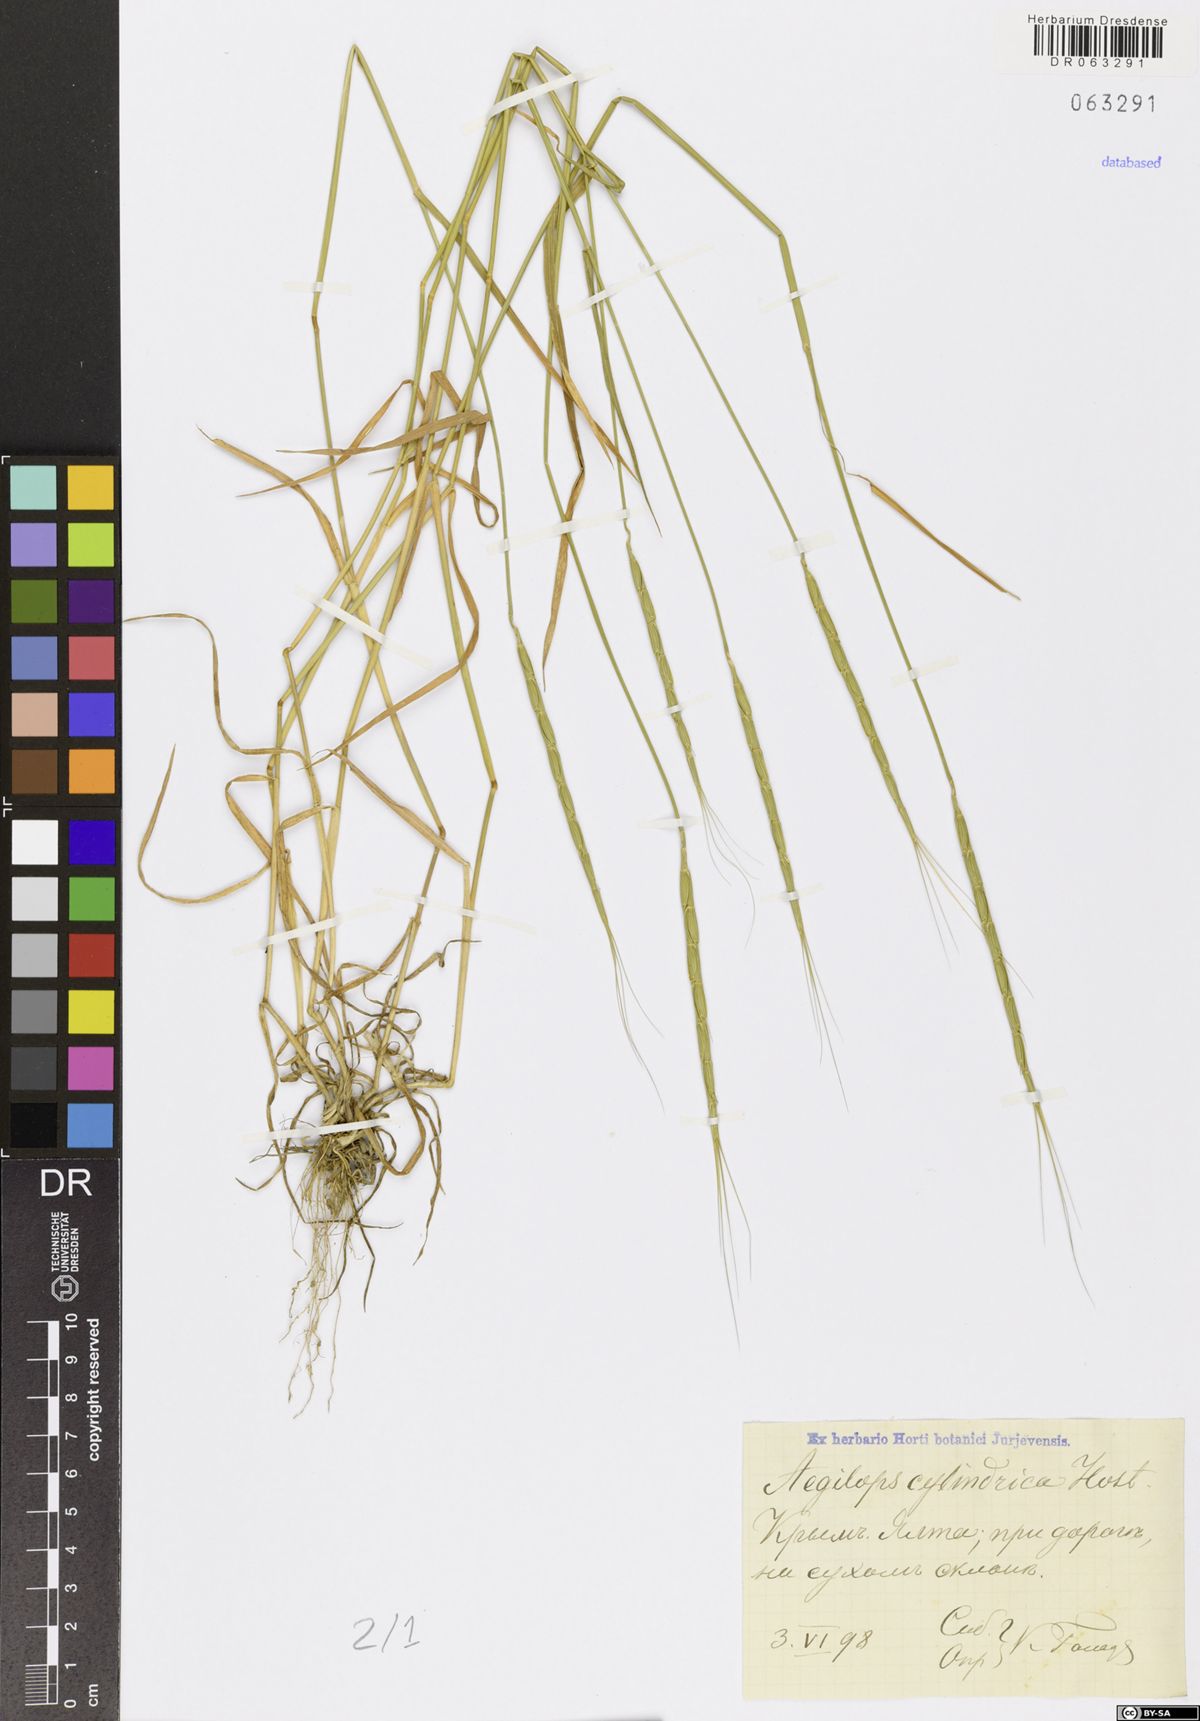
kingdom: Plantae
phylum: Tracheophyta
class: Liliopsida
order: Poales
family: Poaceae
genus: Aegilops
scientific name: Aegilops cylindrica
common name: Jointed goatgrass
